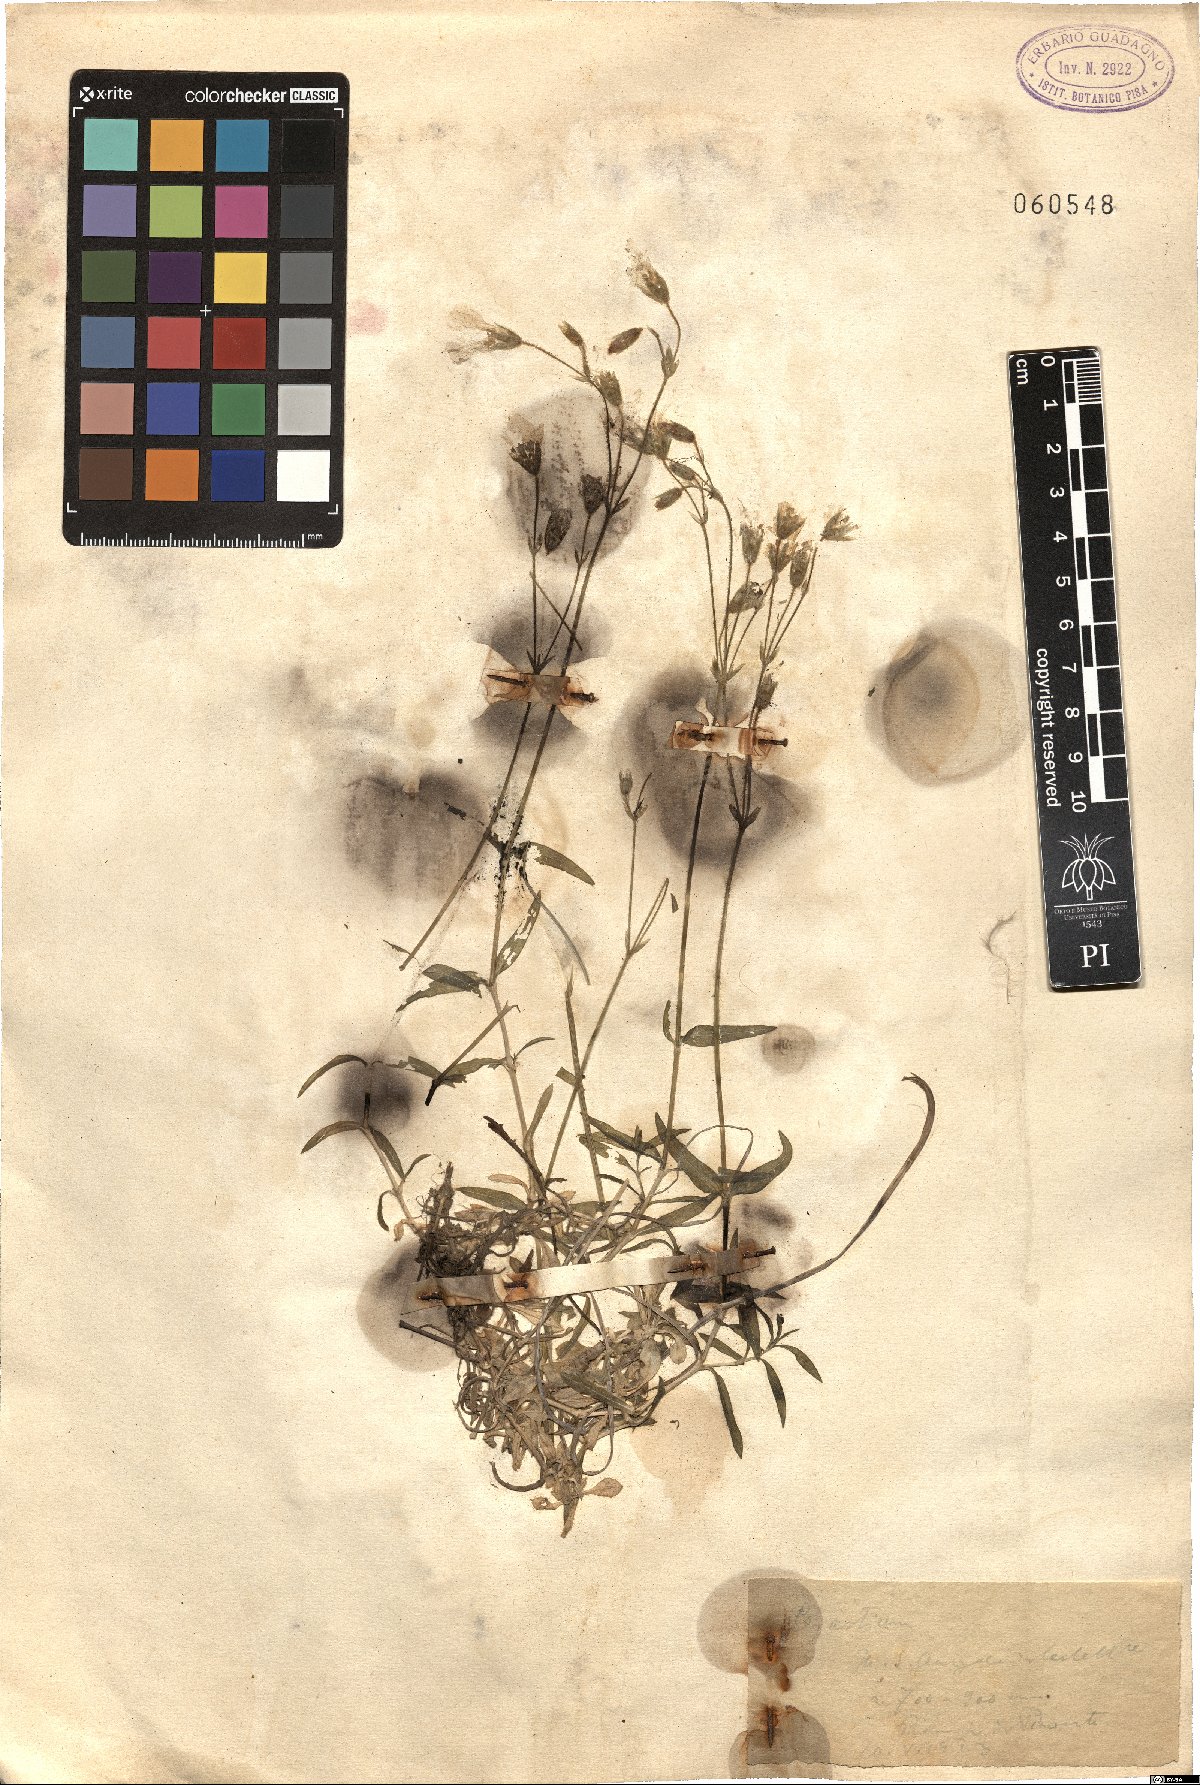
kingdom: Plantae
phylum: Tracheophyta
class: Magnoliopsida
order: Caryophyllales
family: Caryophyllaceae
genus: Cerastium
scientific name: Cerastium
